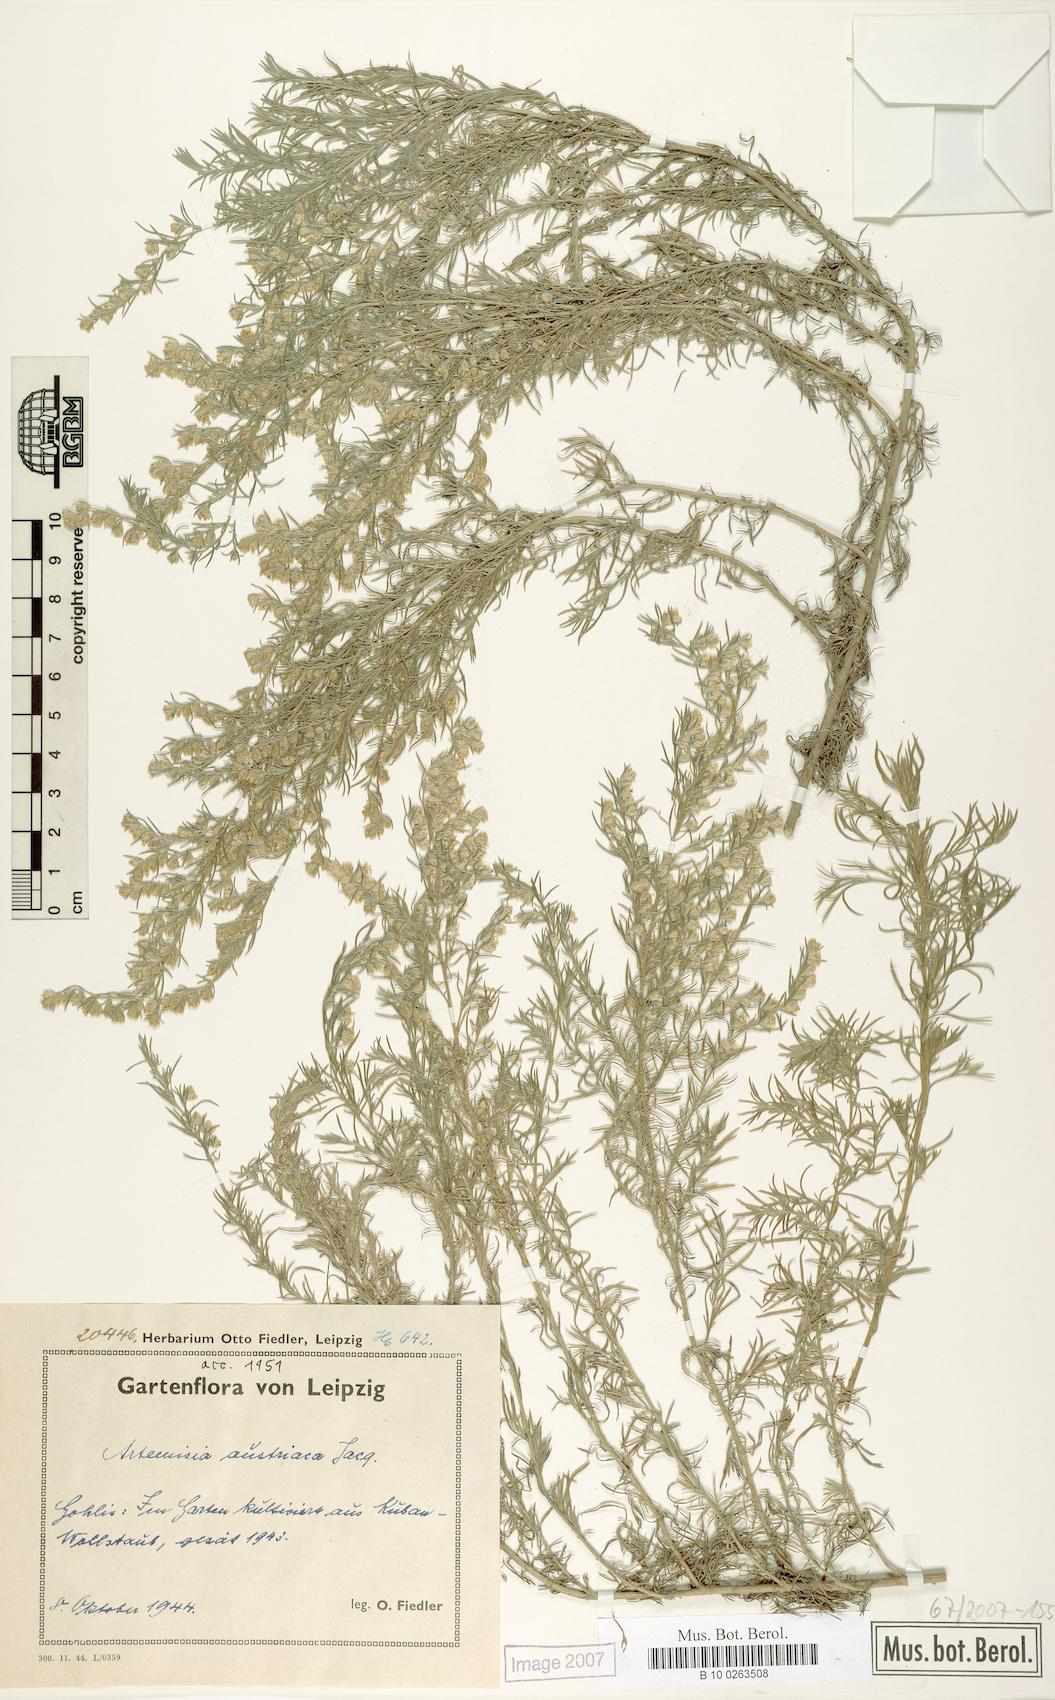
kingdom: Plantae
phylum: Tracheophyta
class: Magnoliopsida
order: Asterales
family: Asteraceae
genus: Artemisia
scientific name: Artemisia austriaca
